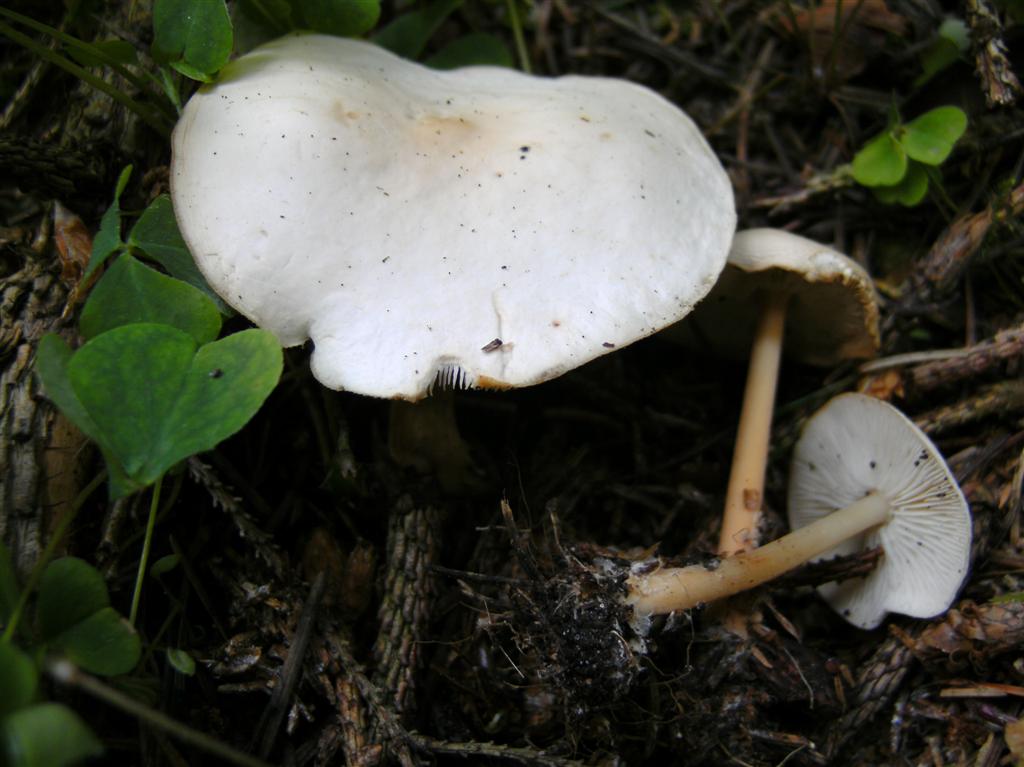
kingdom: Fungi
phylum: Basidiomycota
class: Agaricomycetes
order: Agaricales
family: Omphalotaceae
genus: Gymnopus
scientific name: Gymnopus aquosus
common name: bleg fladhat
